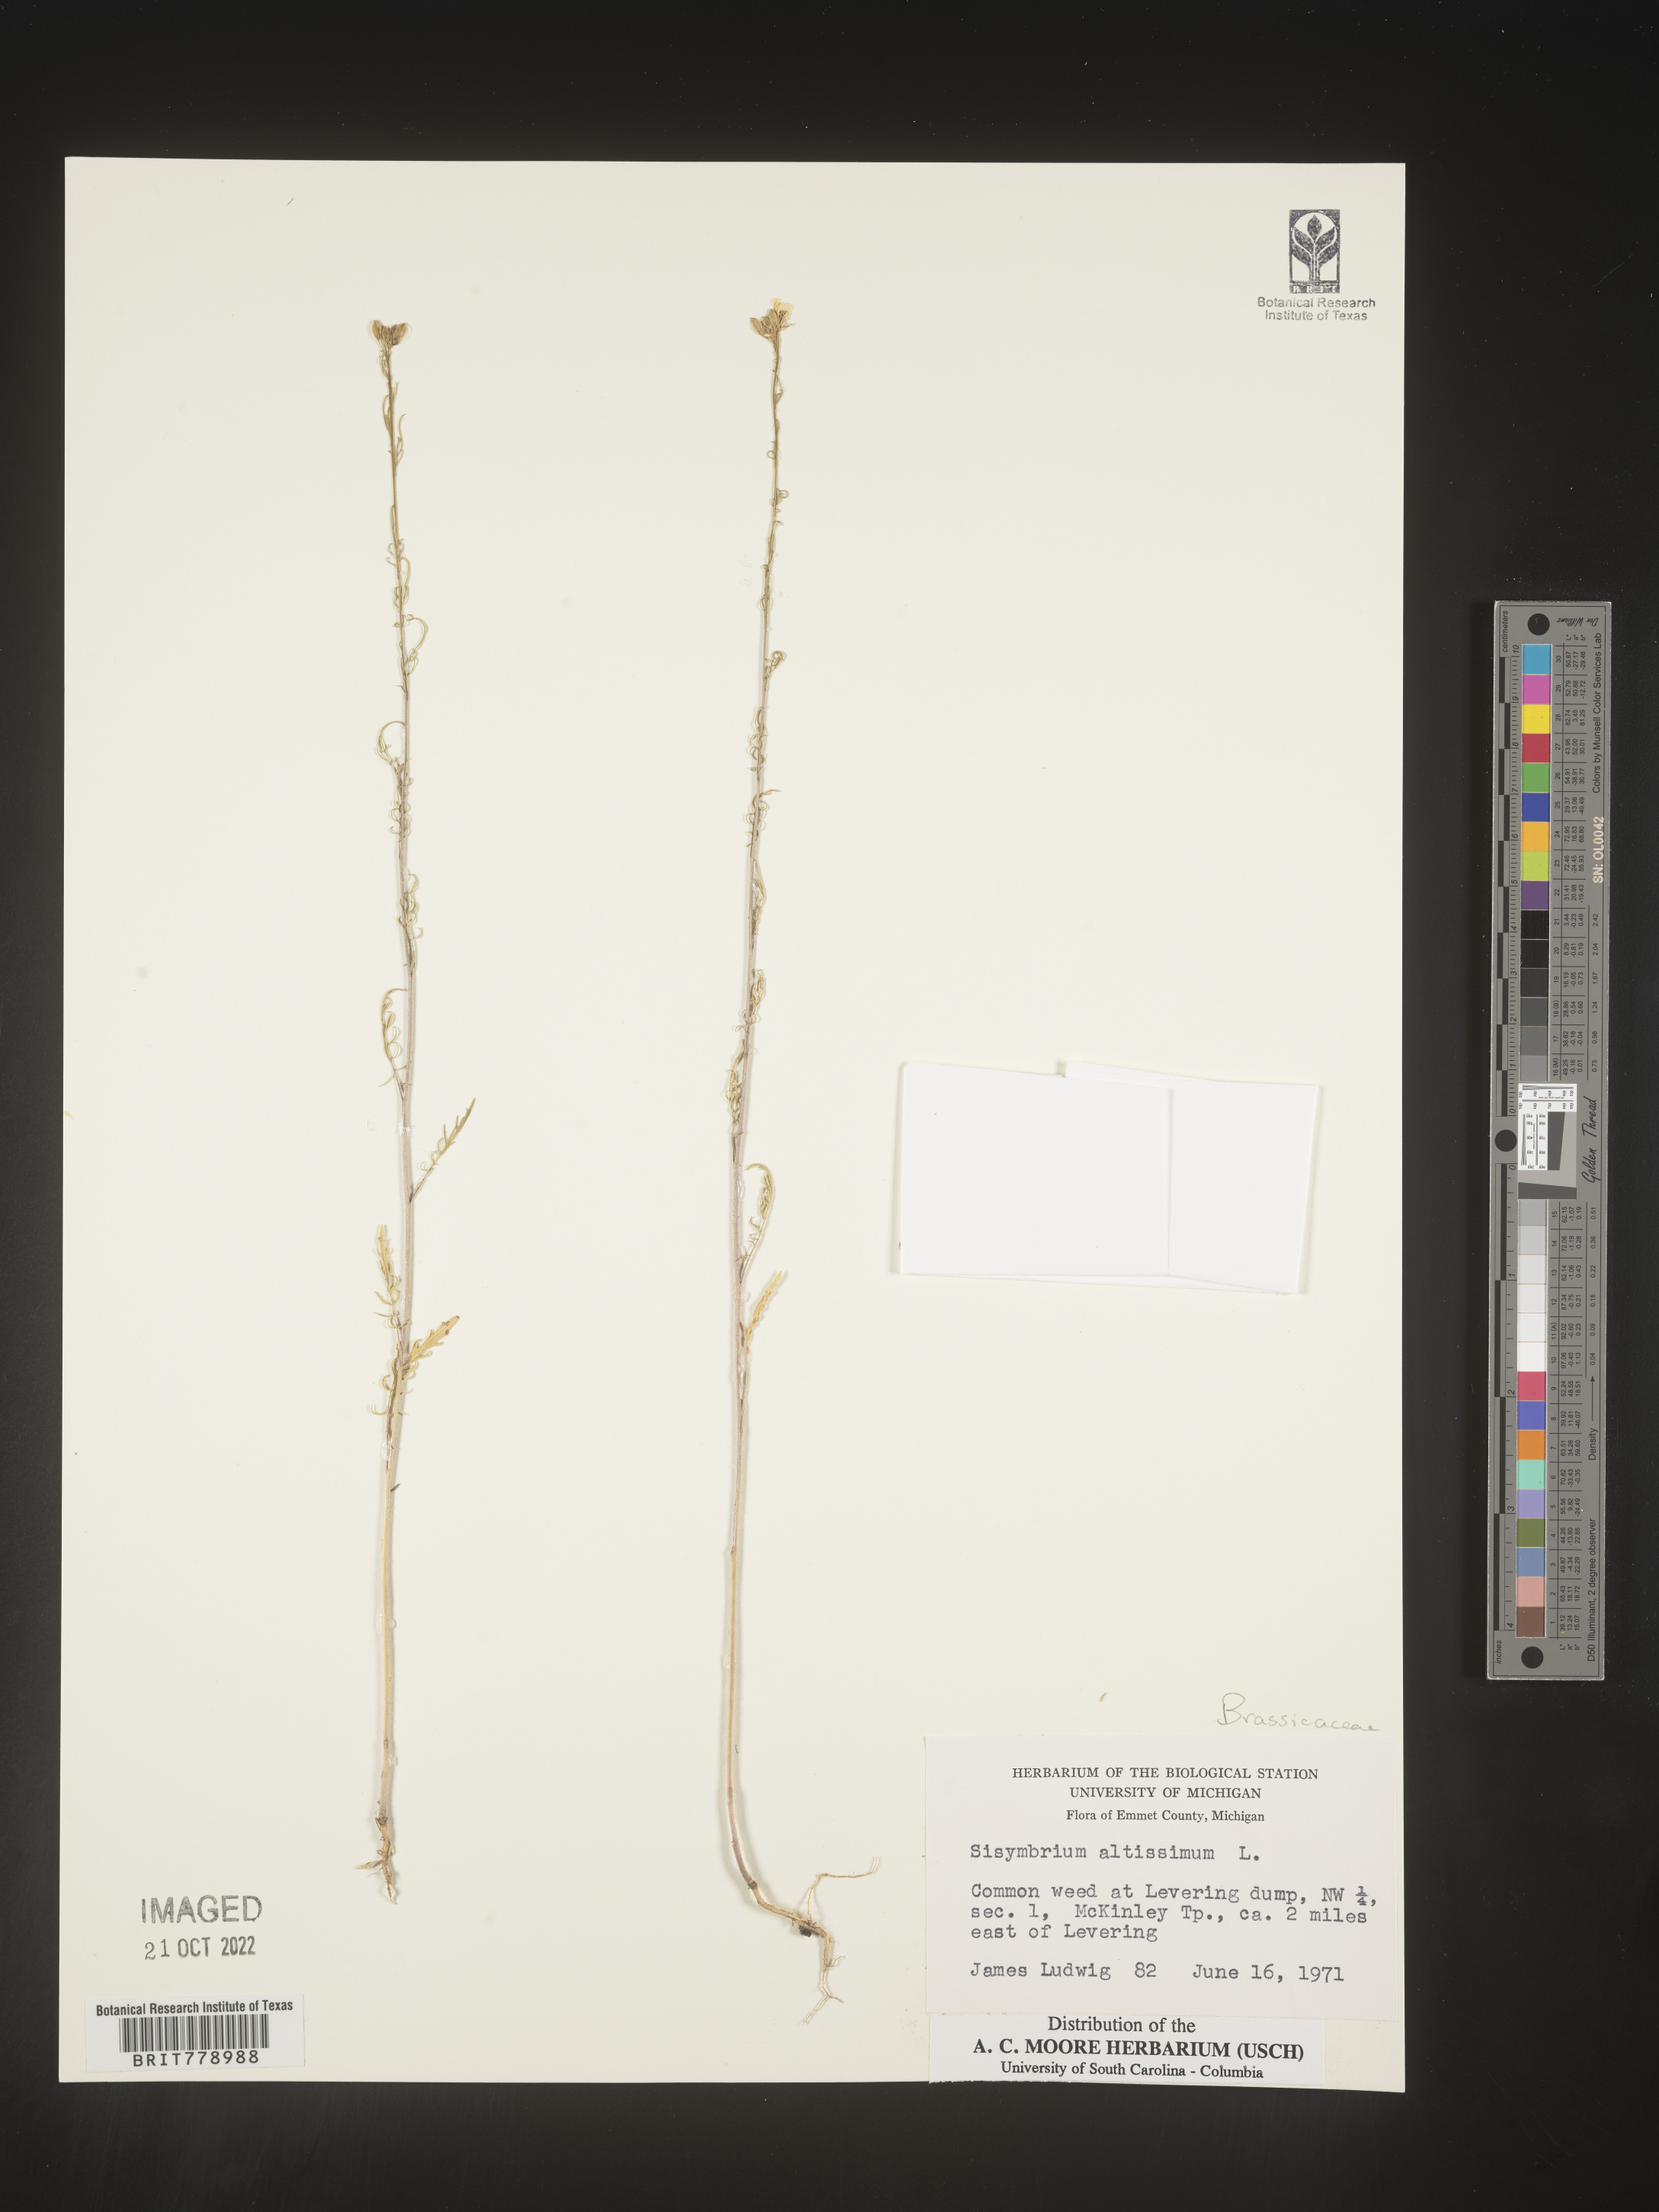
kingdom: Plantae
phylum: Tracheophyta
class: Magnoliopsida
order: Brassicales
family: Brassicaceae
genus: Sisymbrium
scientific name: Sisymbrium altissimum
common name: Tall rocket
